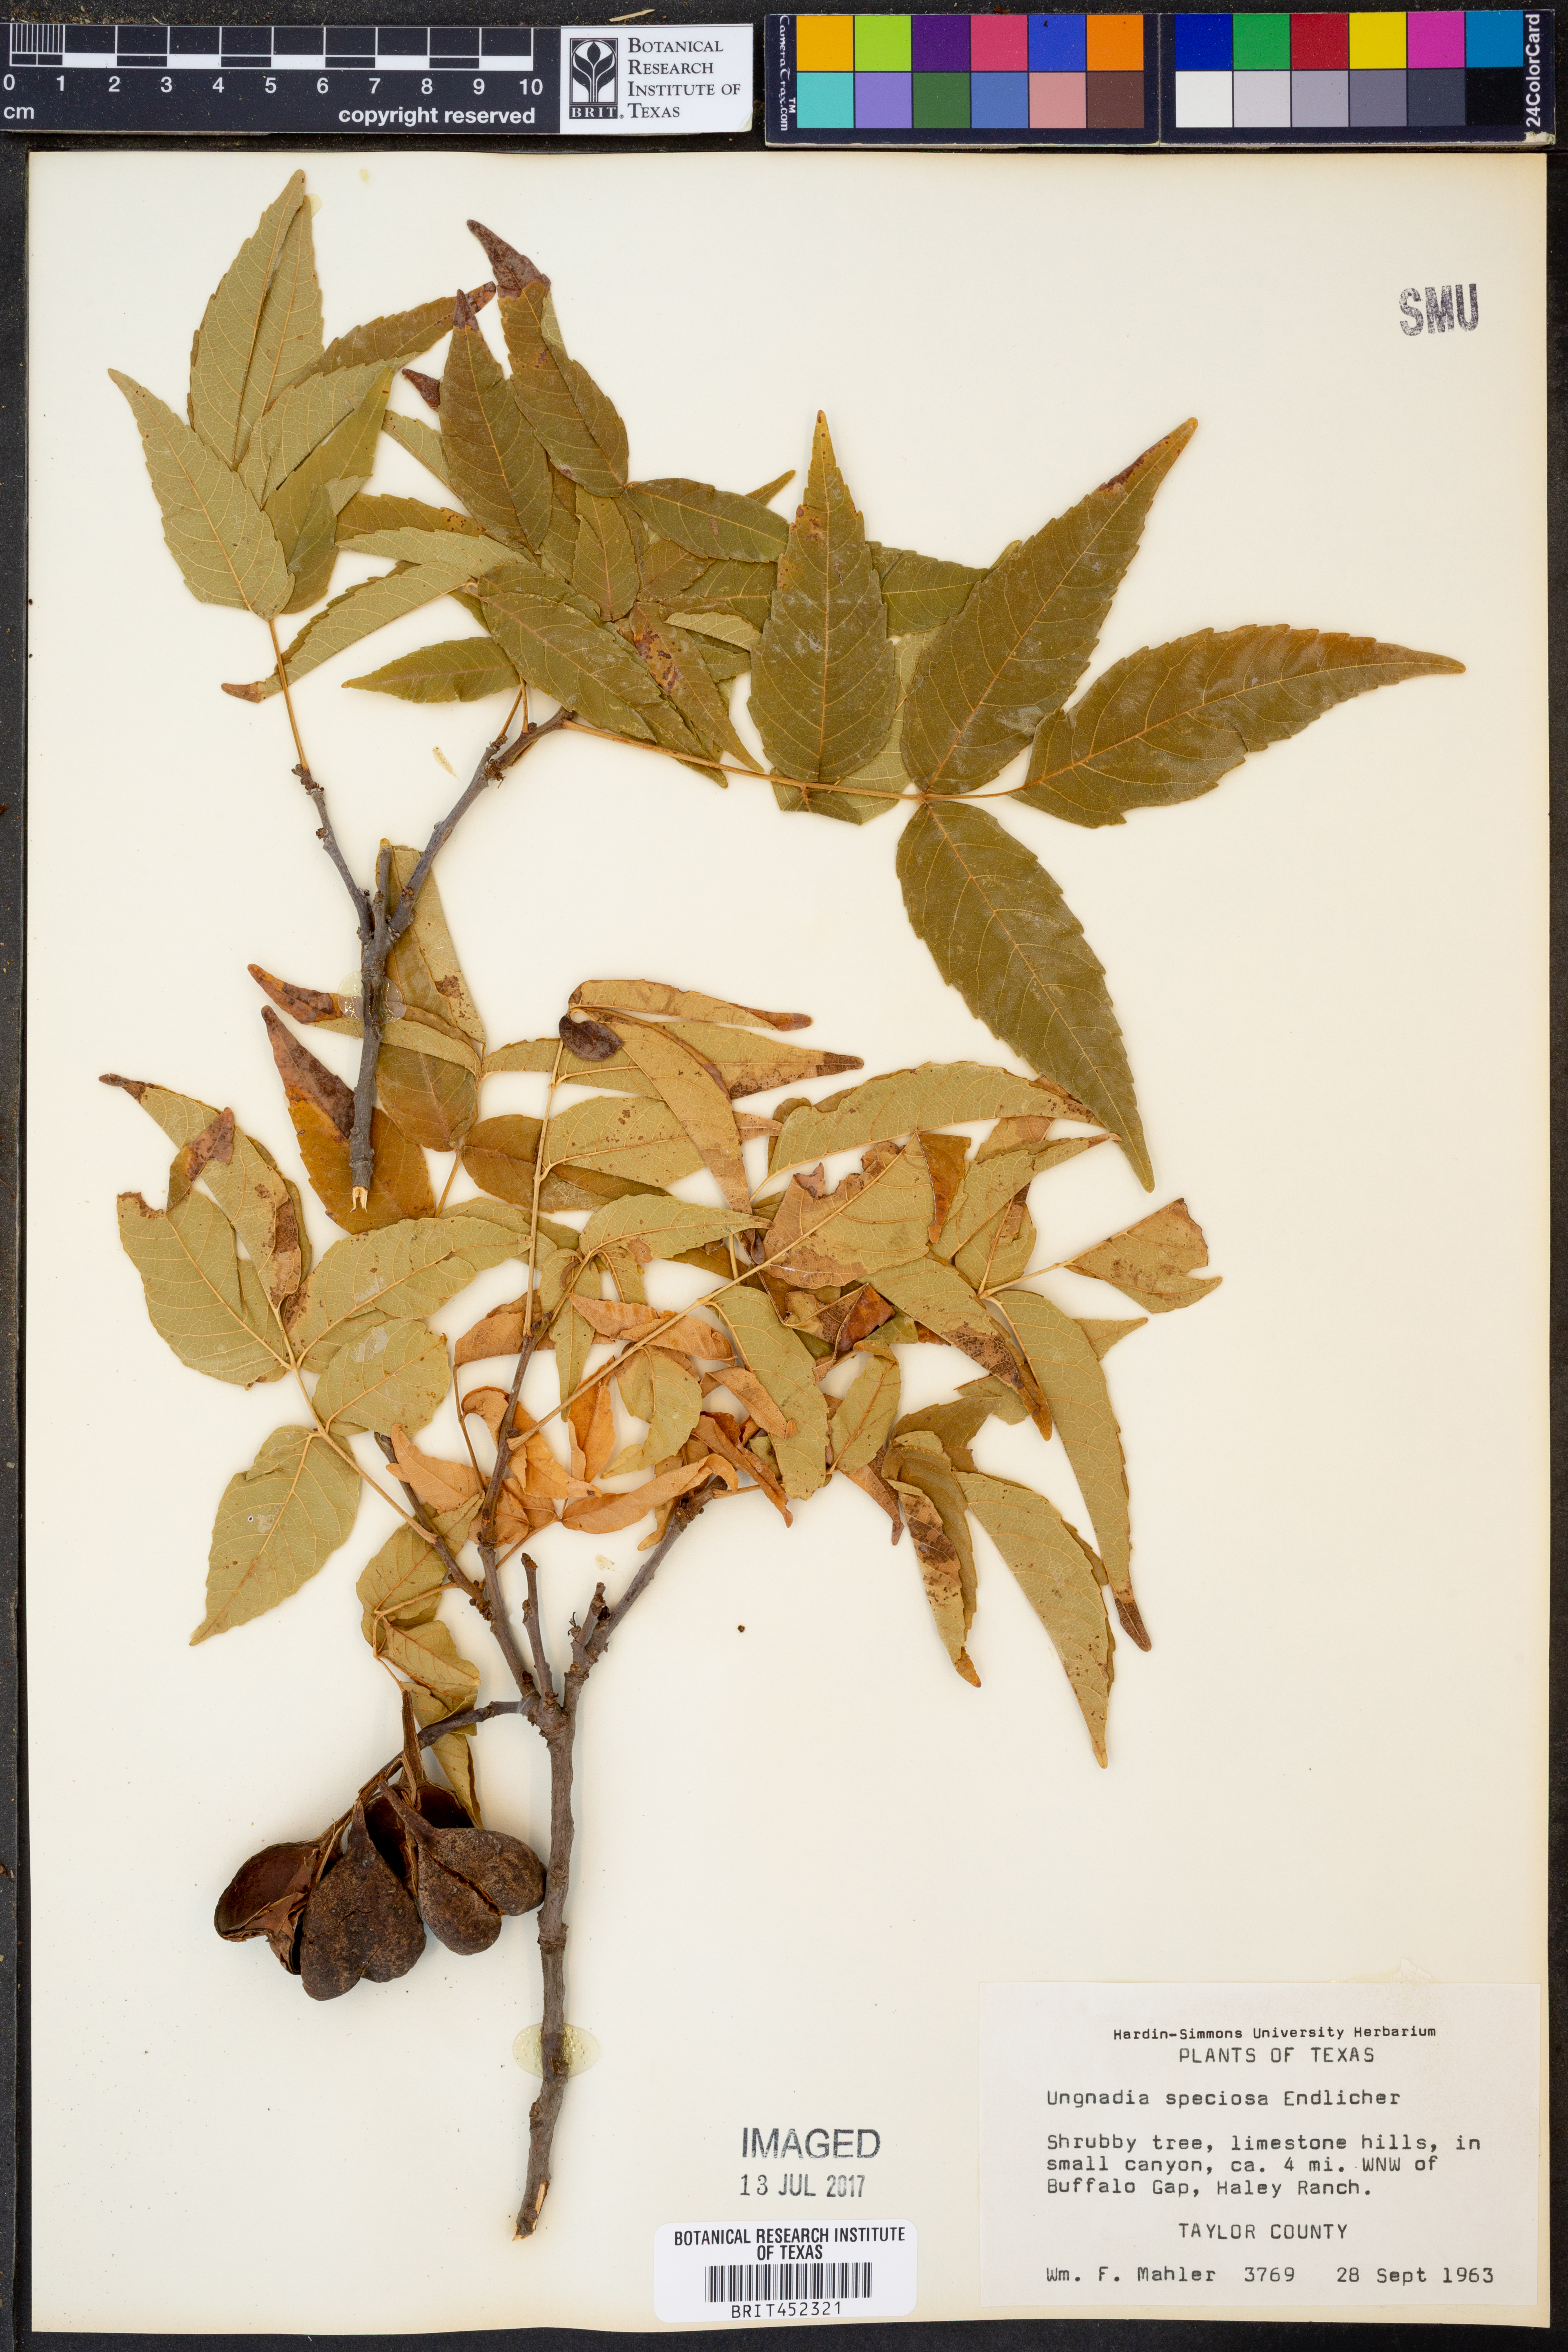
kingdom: Plantae
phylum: Tracheophyta
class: Magnoliopsida
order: Sapindales
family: Sapindaceae
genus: Ungnadia
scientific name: Ungnadia speciosa
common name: Texas-buckeye
